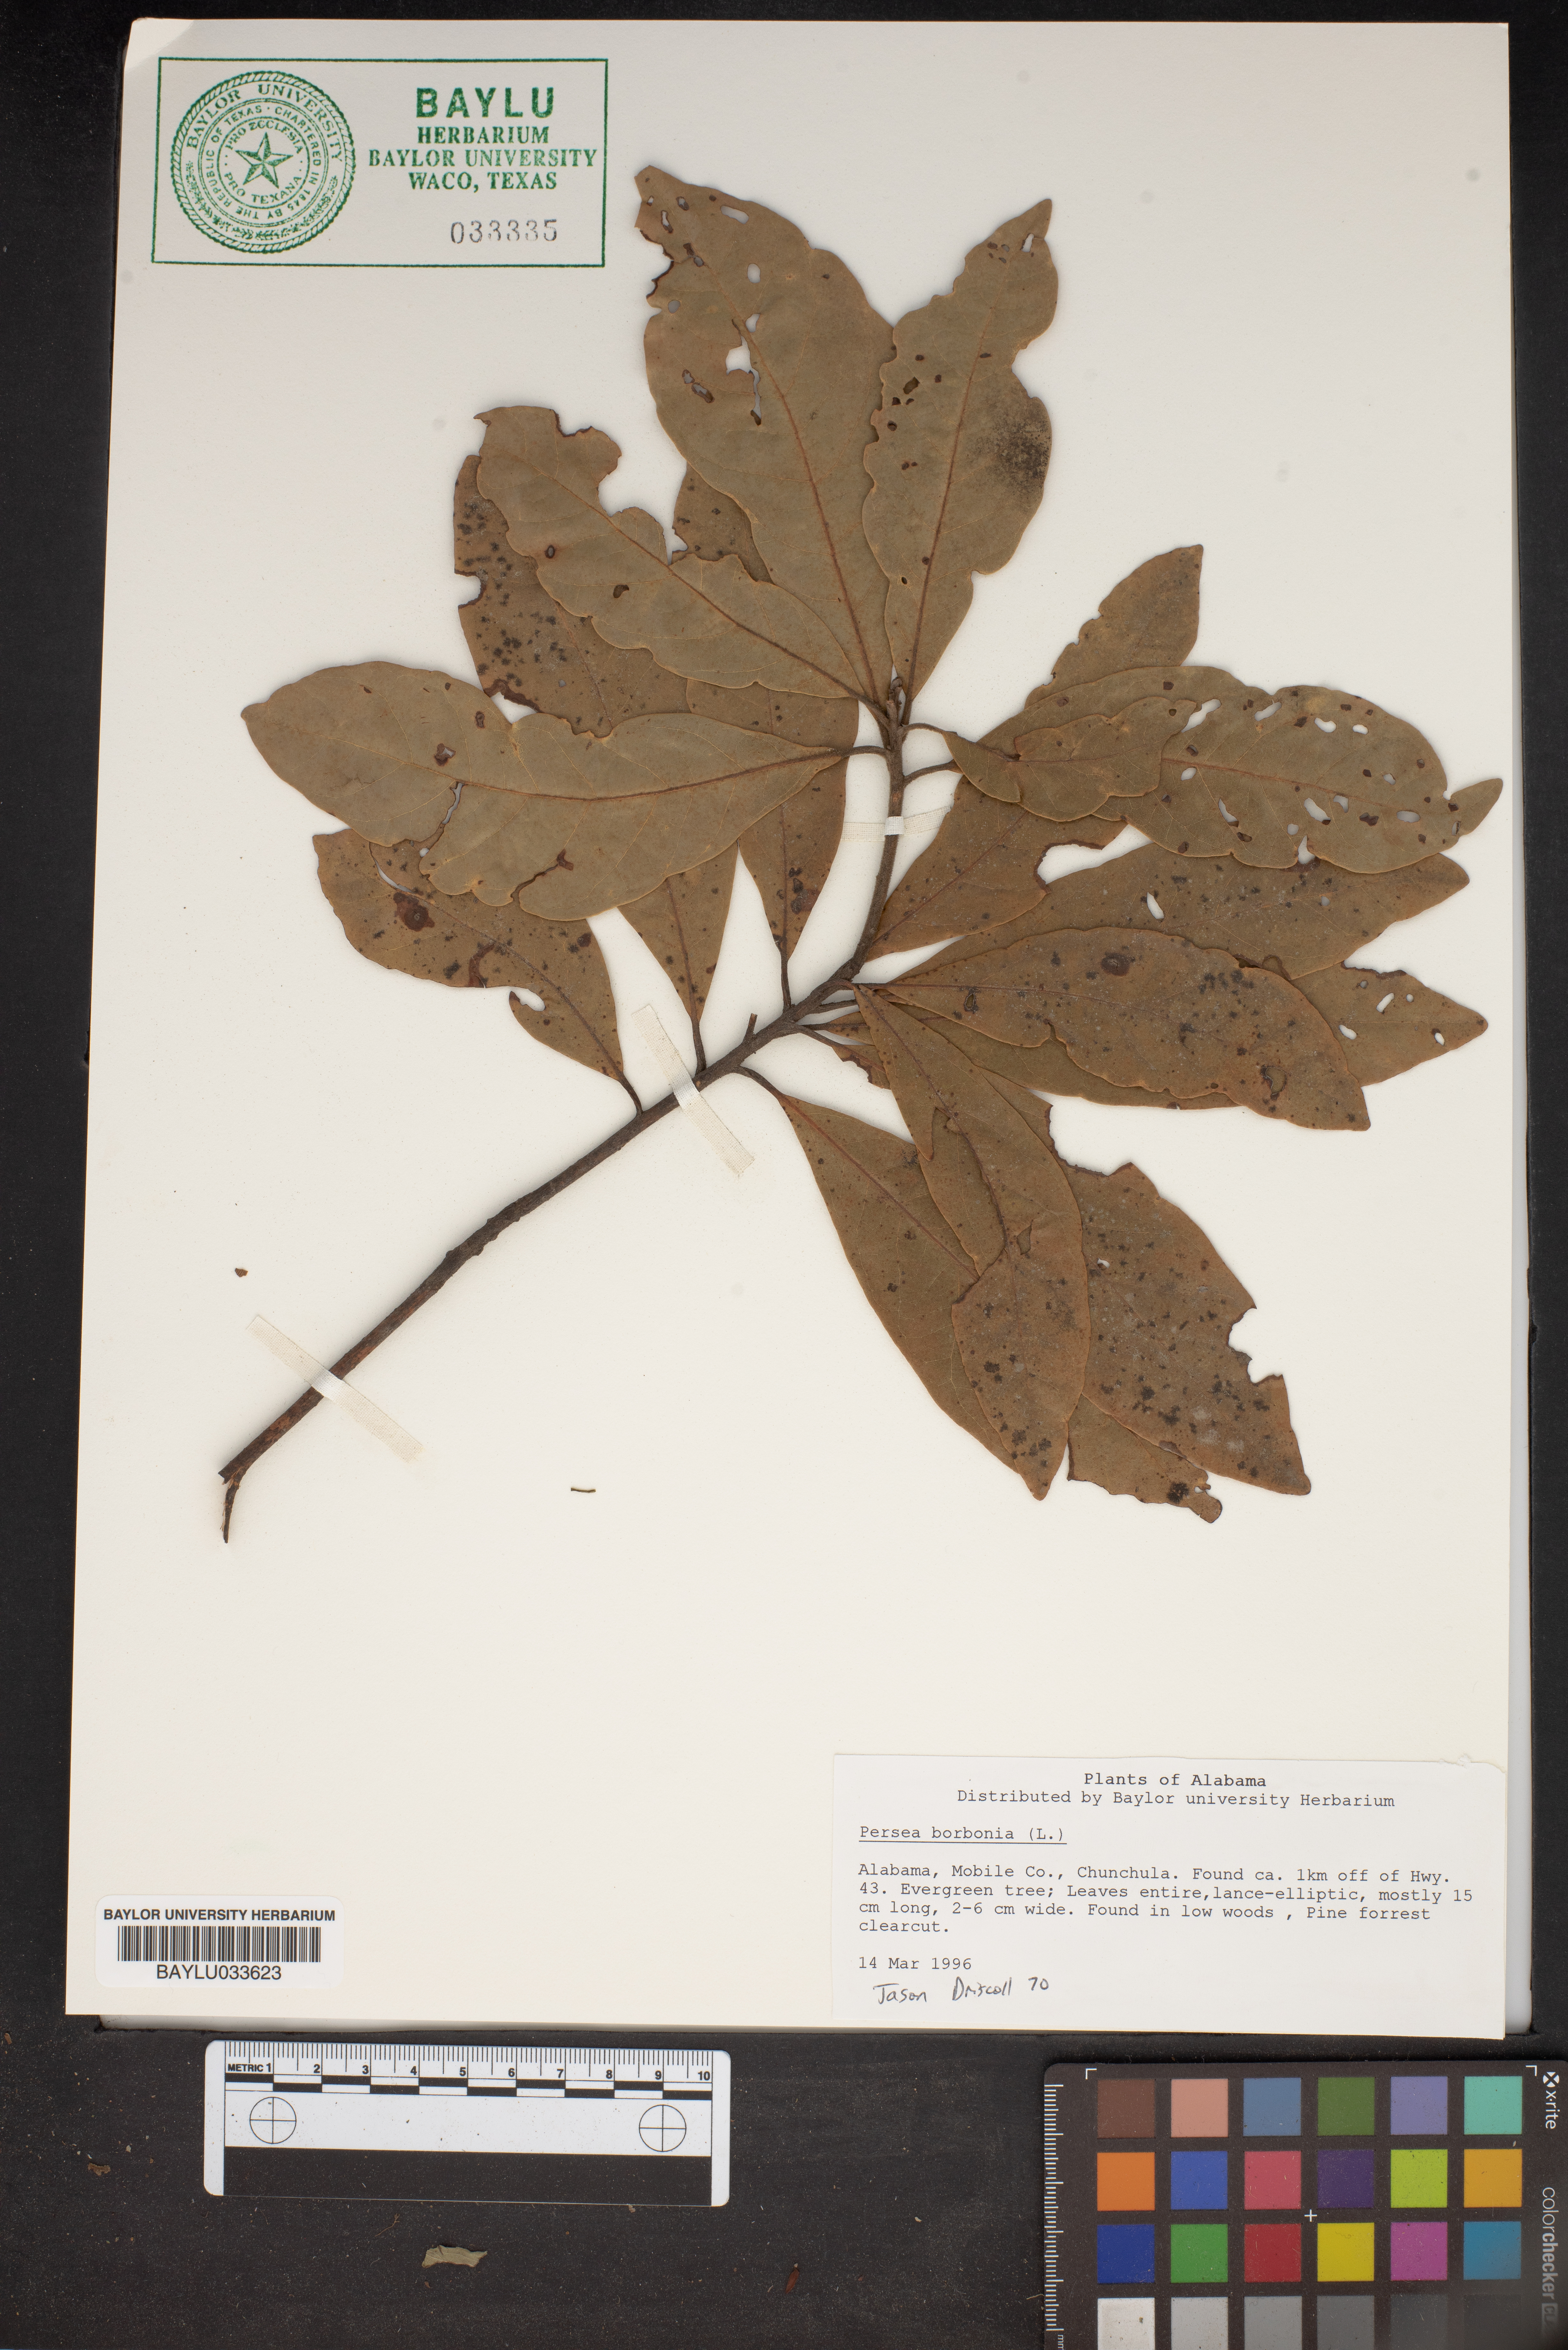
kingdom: Plantae
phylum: Tracheophyta
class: Magnoliopsida
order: Laurales
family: Lauraceae
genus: Persea
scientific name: Persea borbonia
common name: Redbay
